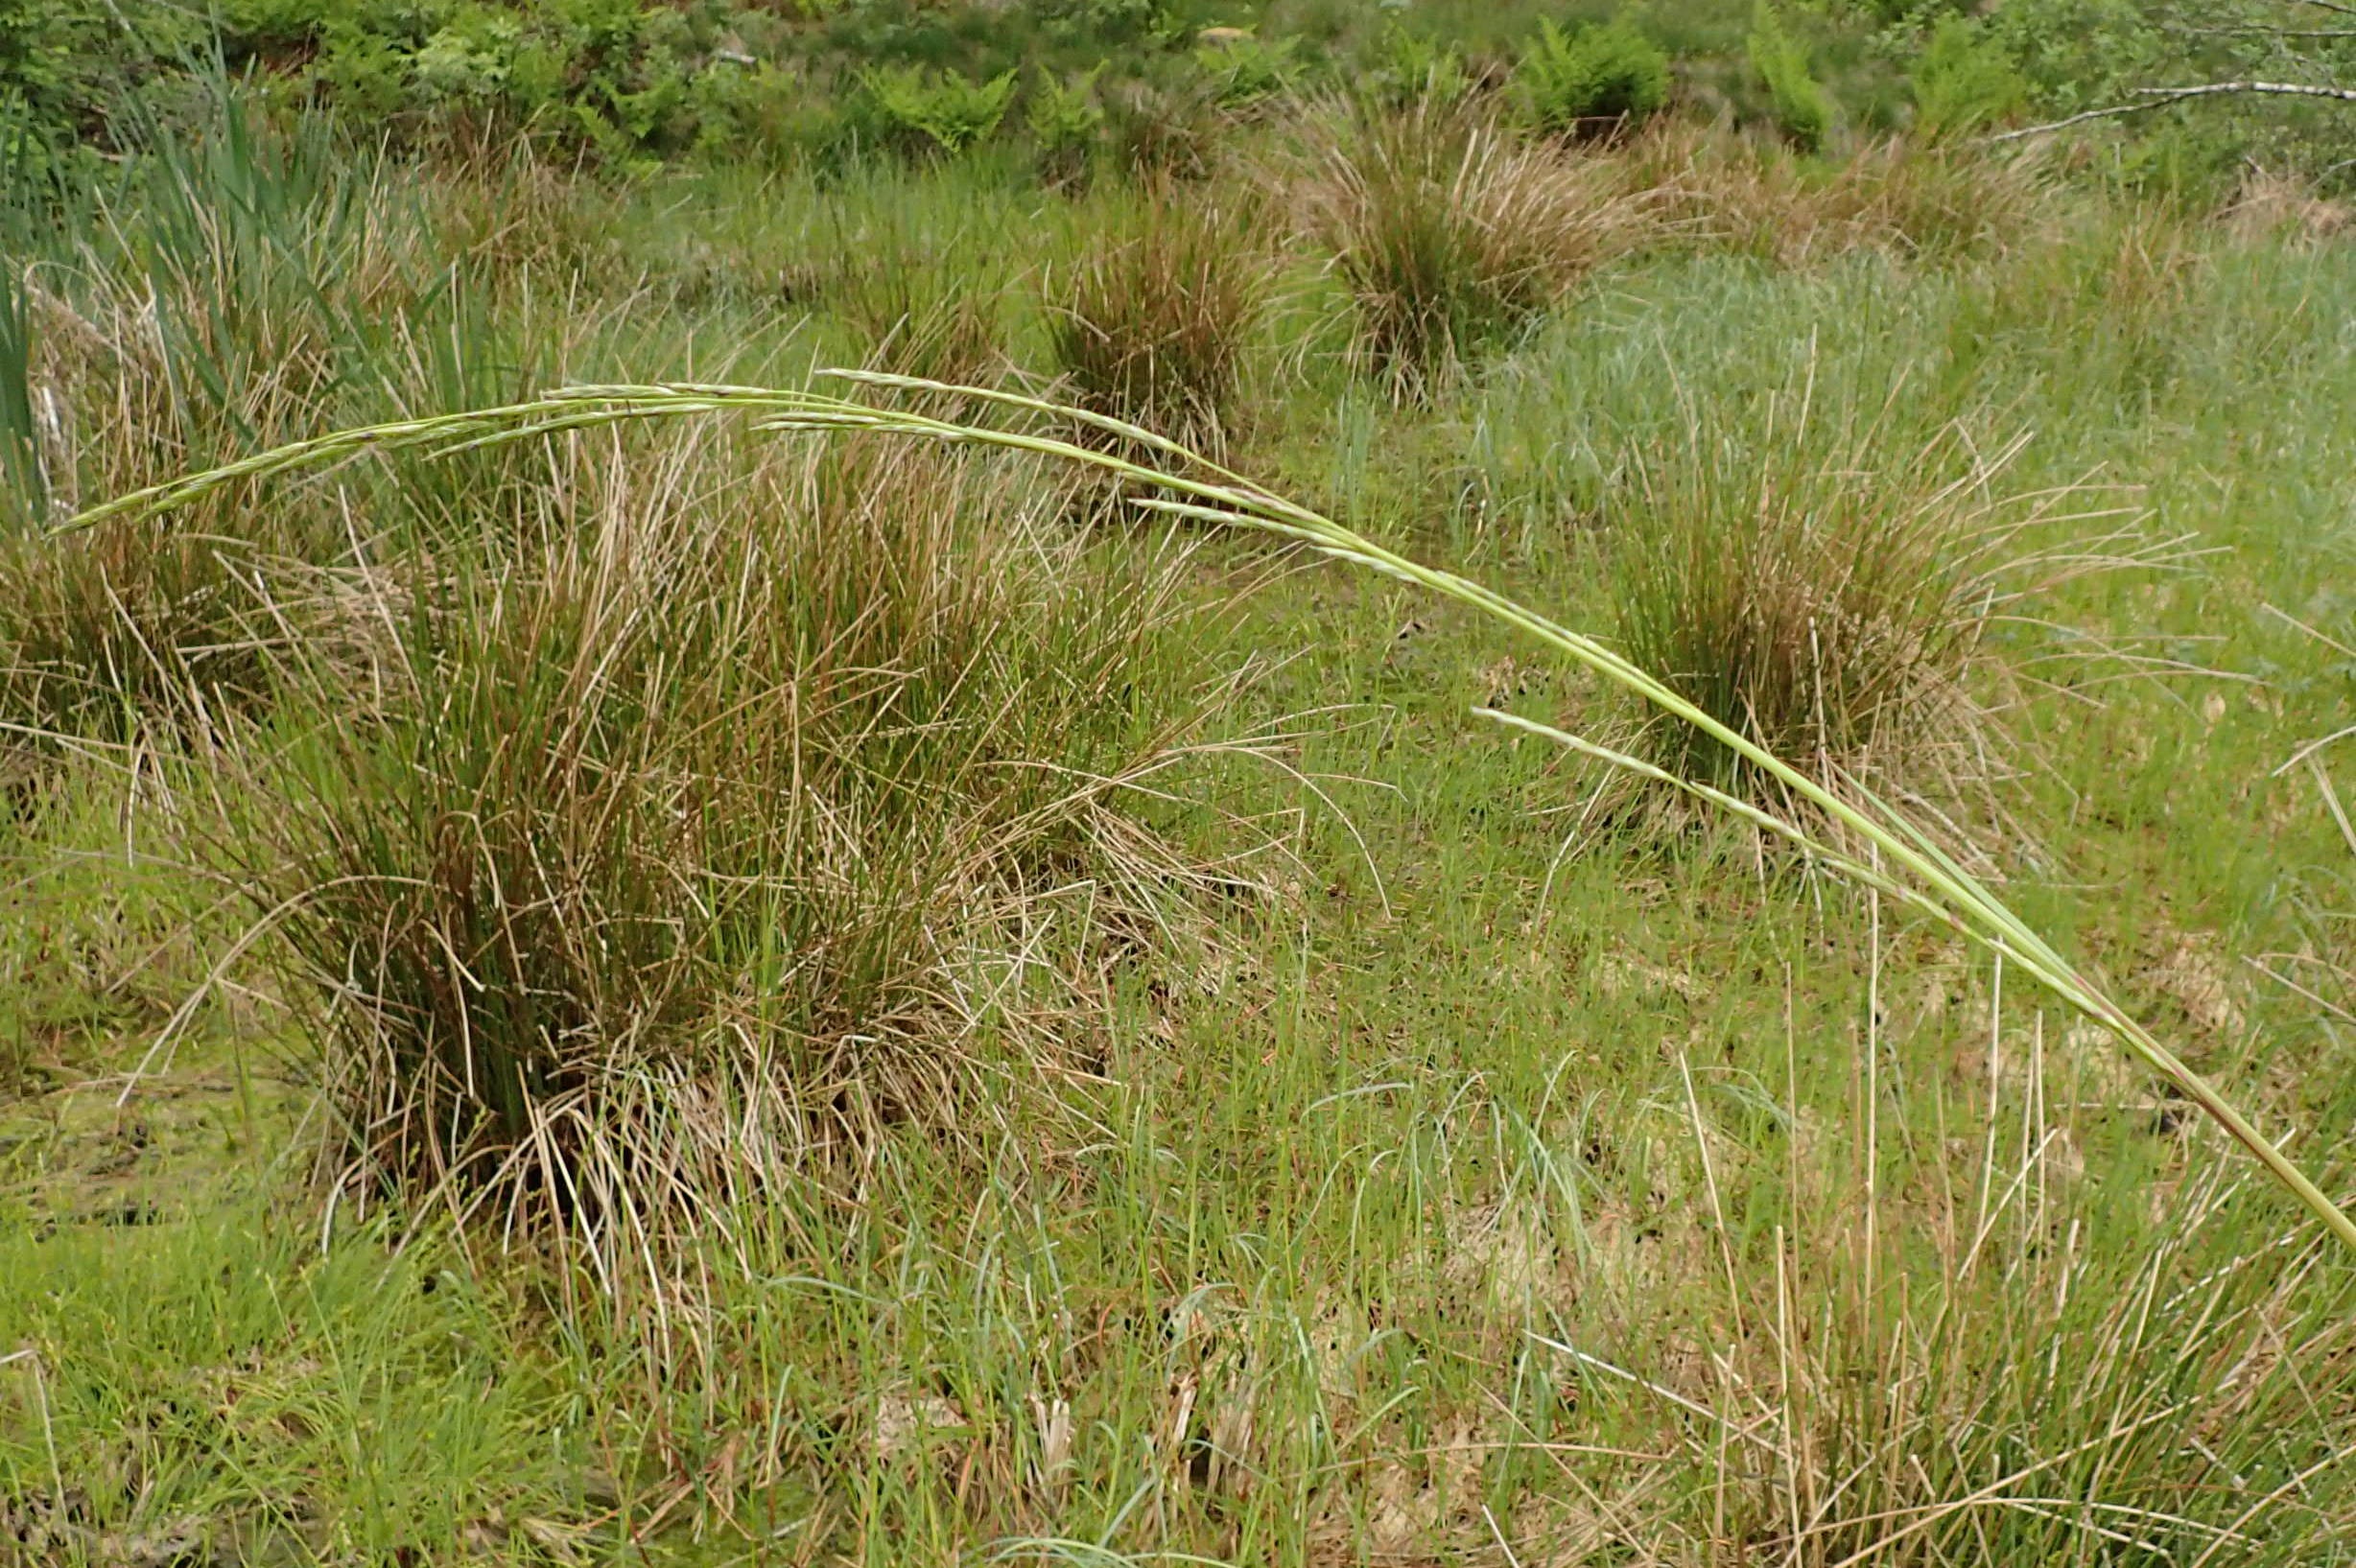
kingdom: Plantae
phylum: Tracheophyta
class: Liliopsida
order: Poales
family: Poaceae
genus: Glyceria
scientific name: Glyceria fluitans
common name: Manna-sødgræs
